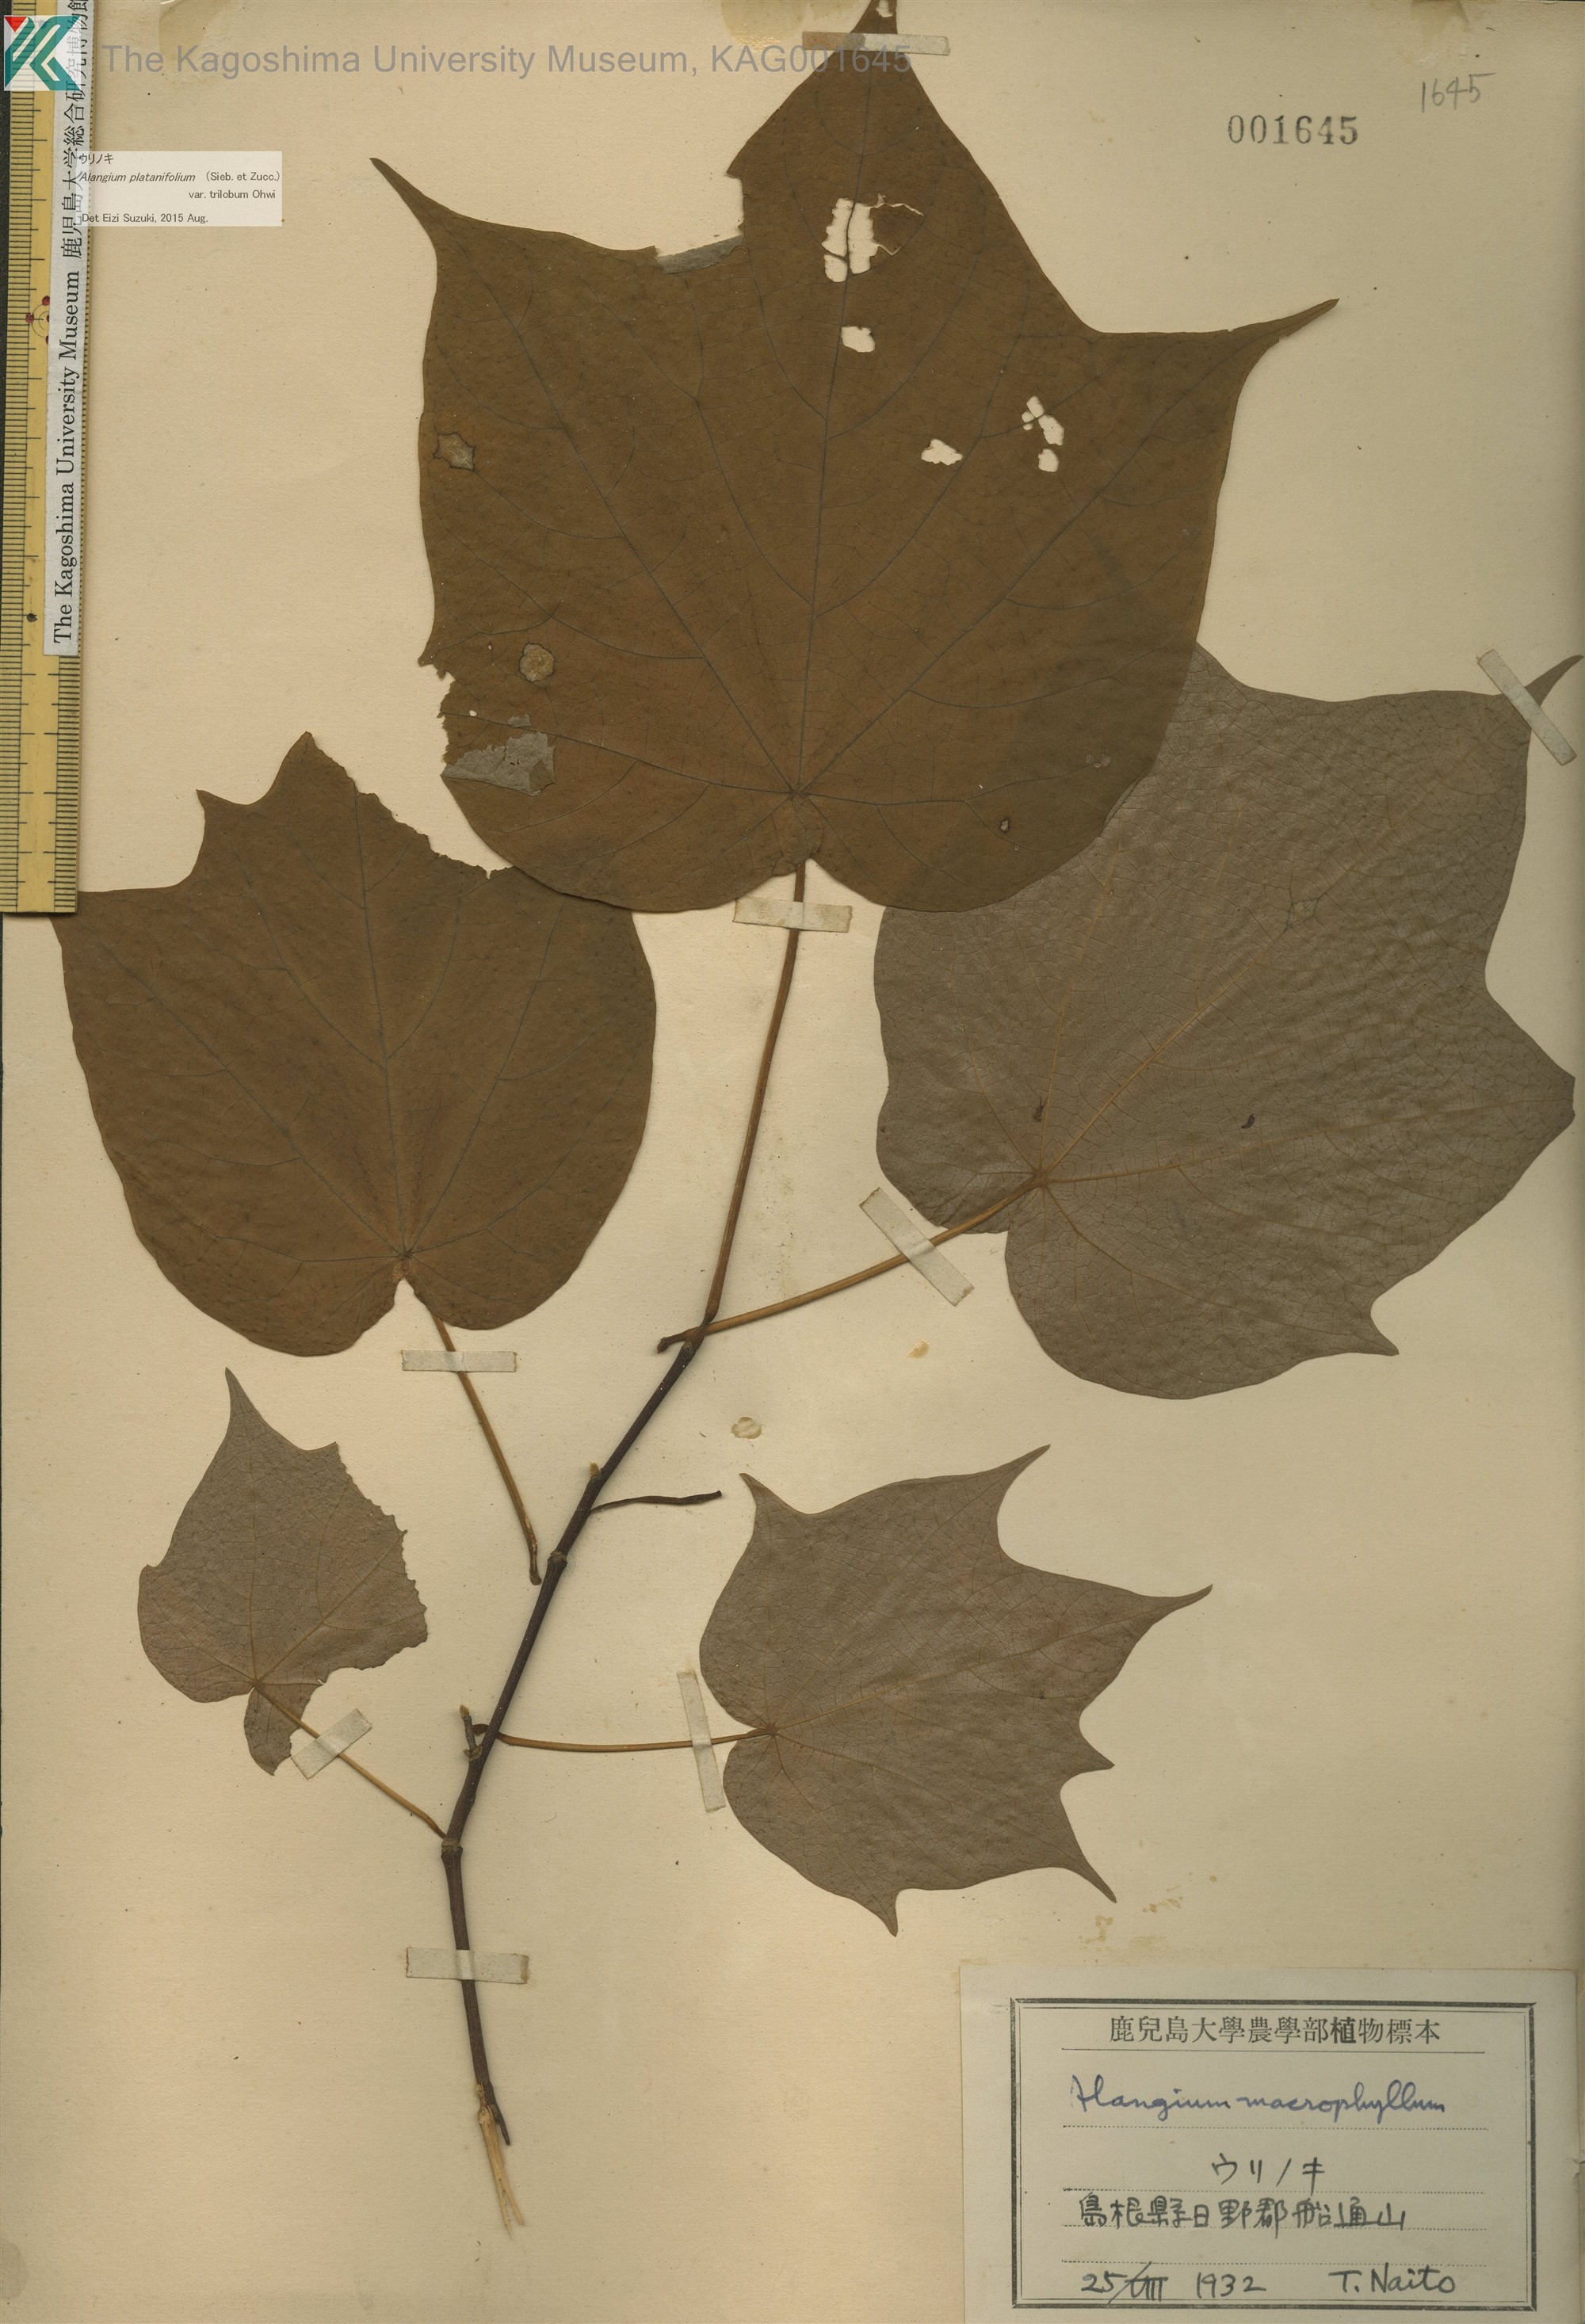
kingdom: Plantae
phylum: Tracheophyta
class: Magnoliopsida
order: Cornales
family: Cornaceae
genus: Alangium
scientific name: Alangium platanifolium
